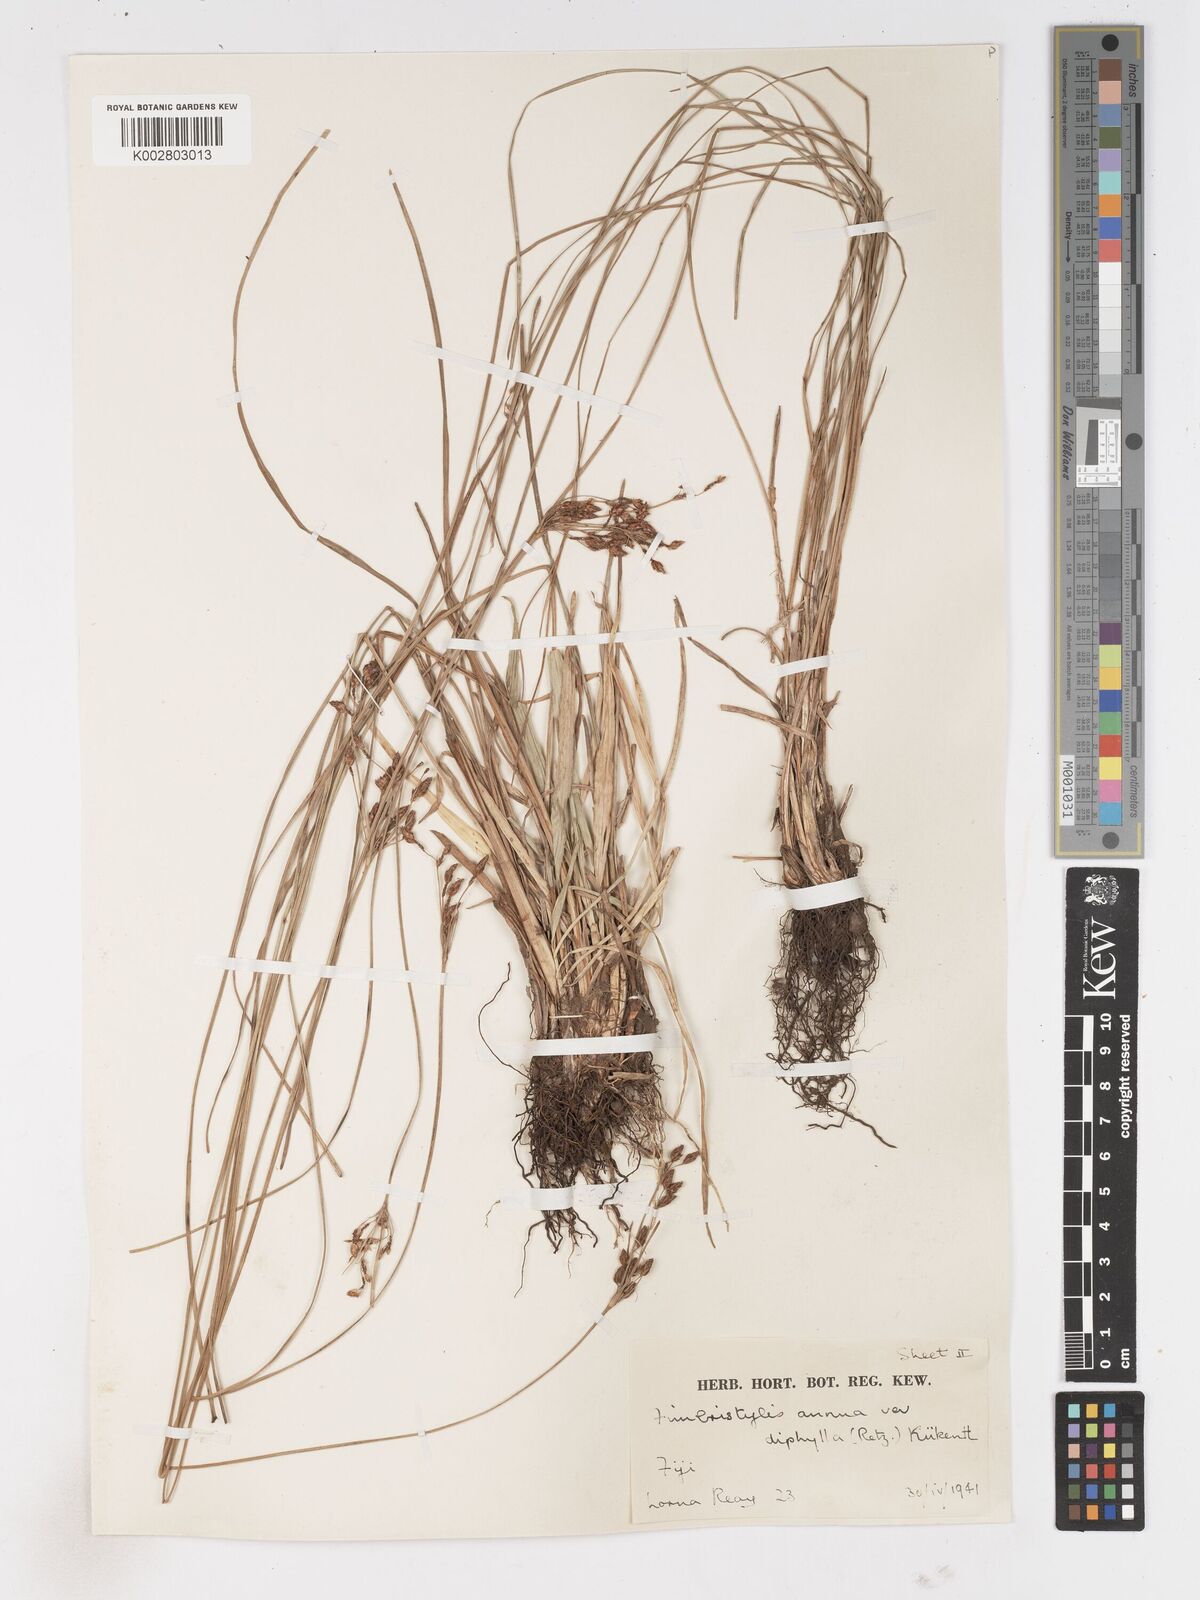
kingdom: Plantae
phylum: Tracheophyta
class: Liliopsida
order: Poales
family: Cyperaceae
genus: Fimbristylis
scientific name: Fimbristylis dichotoma
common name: Forked fimbry
